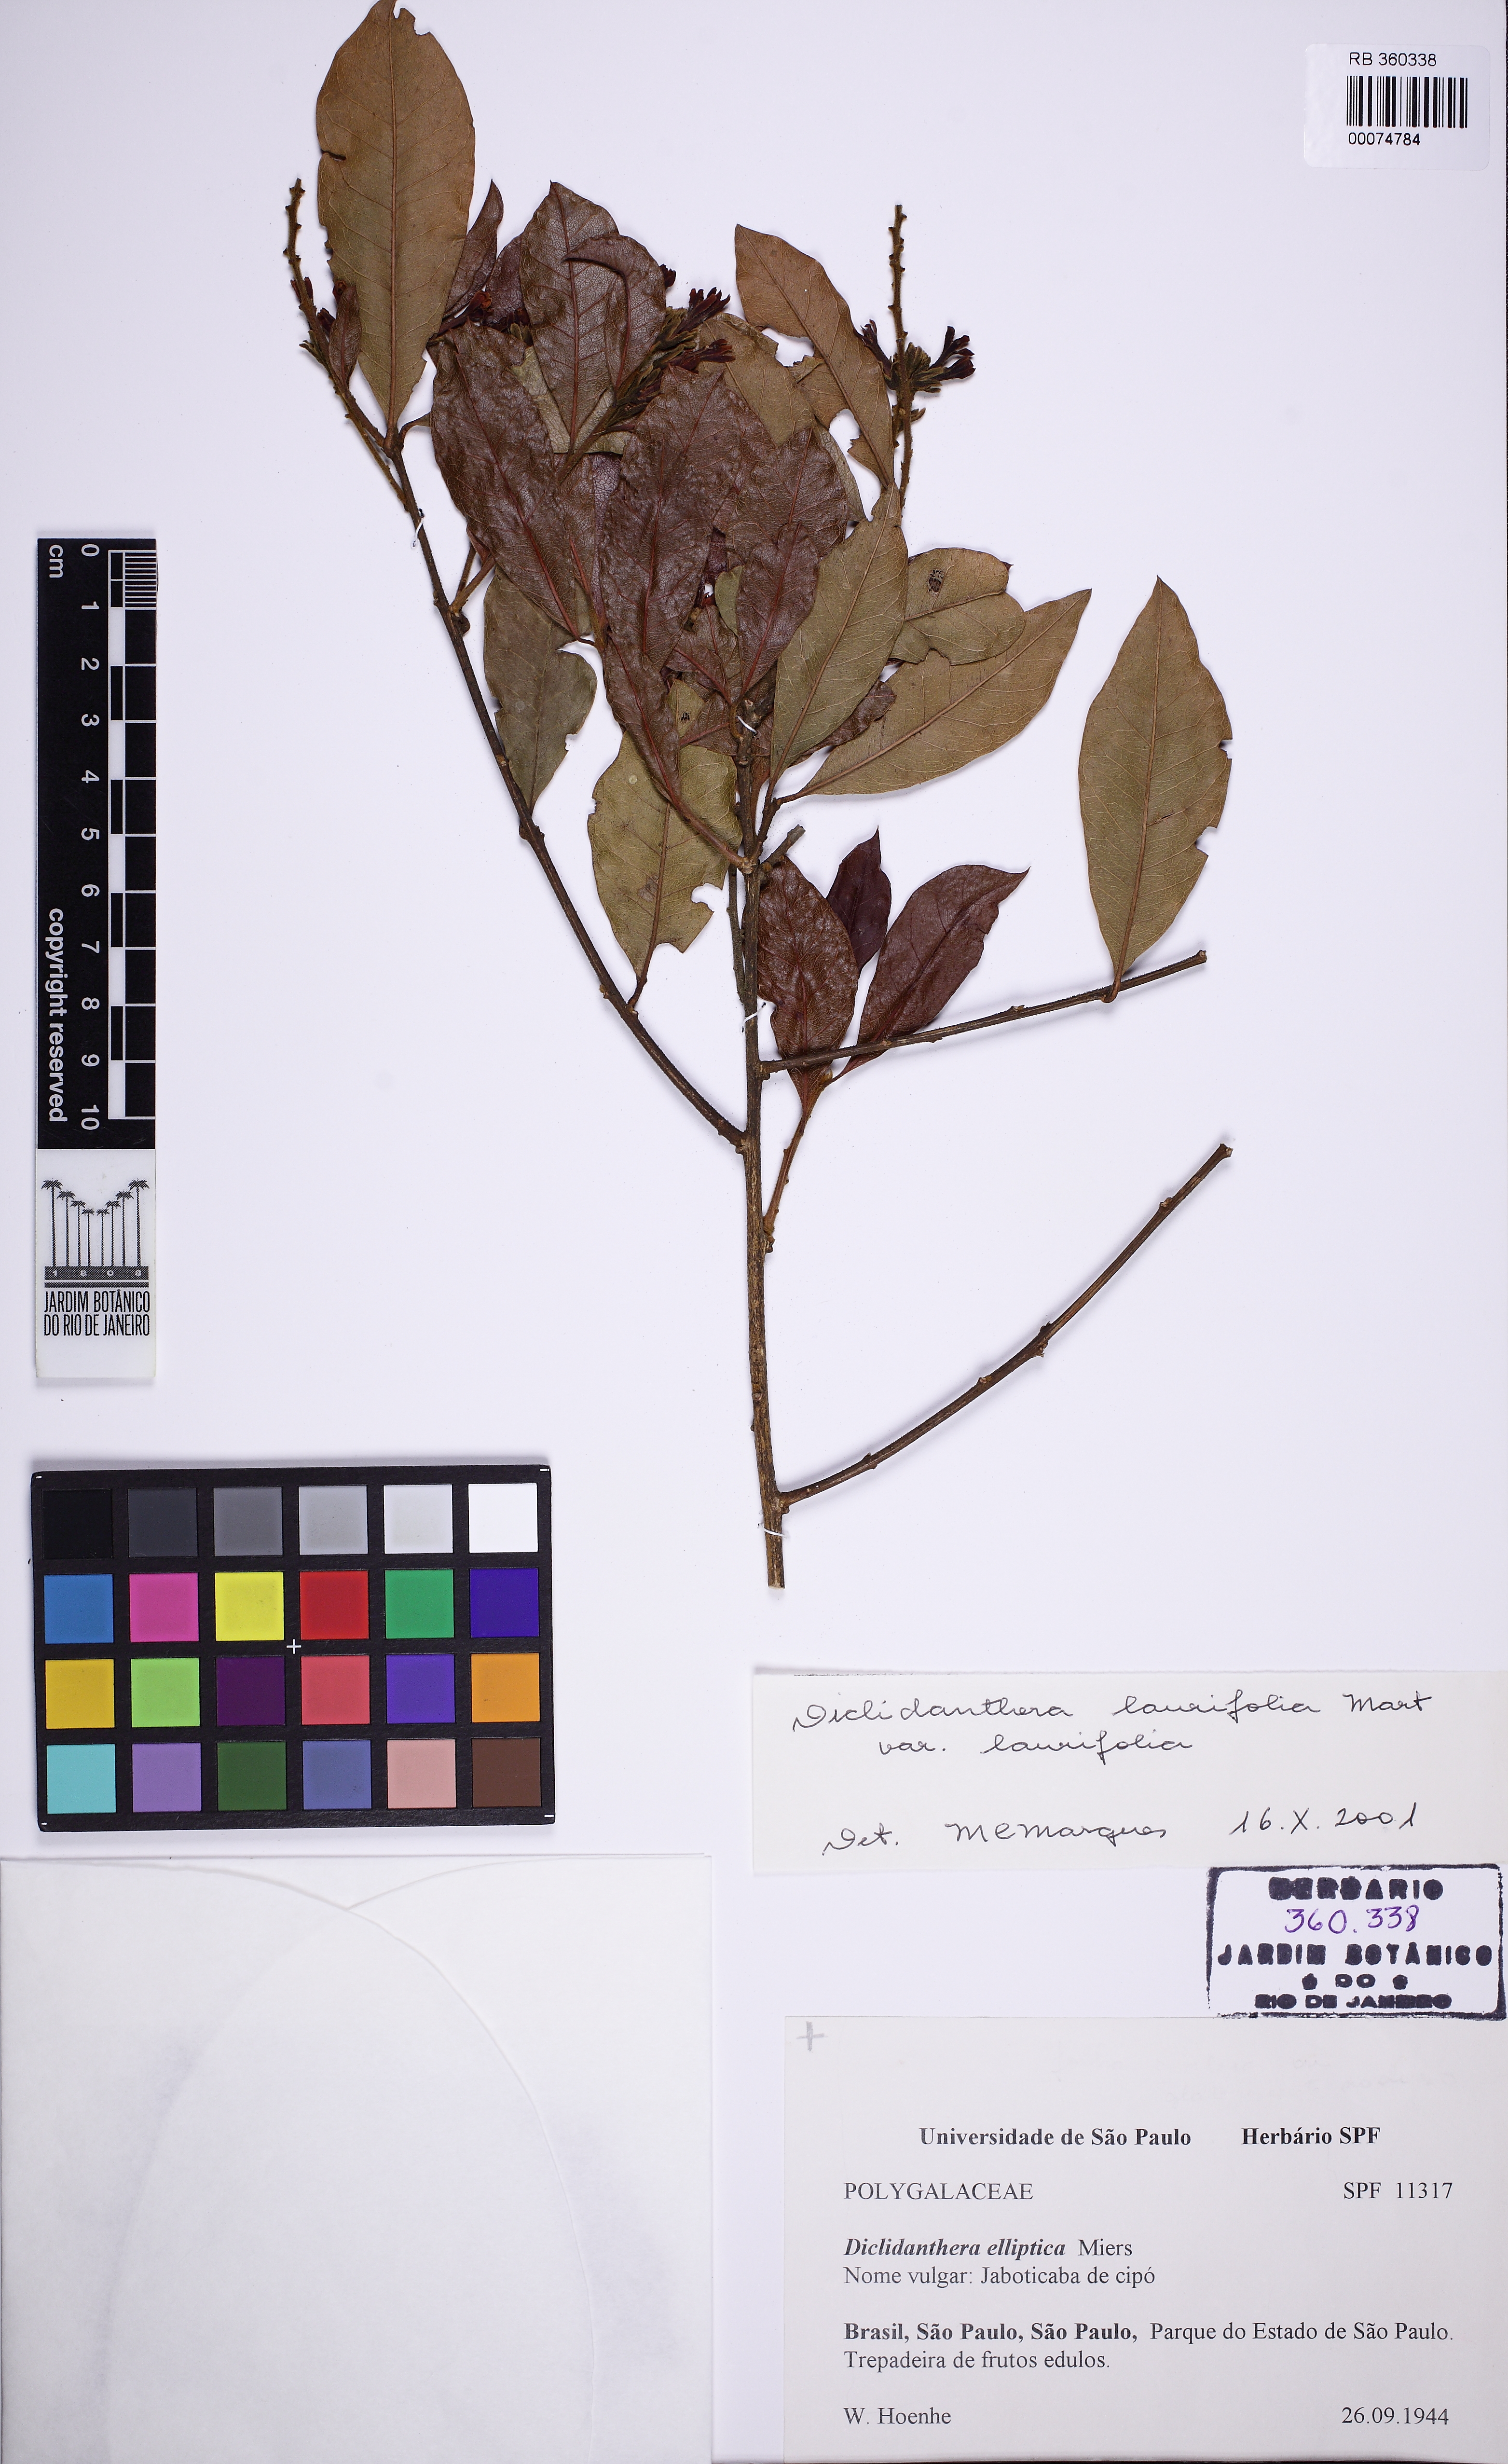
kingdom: Plantae
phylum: Tracheophyta
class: Magnoliopsida
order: Fabales
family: Polygalaceae
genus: Diclidanthera
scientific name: Diclidanthera laurifolia
